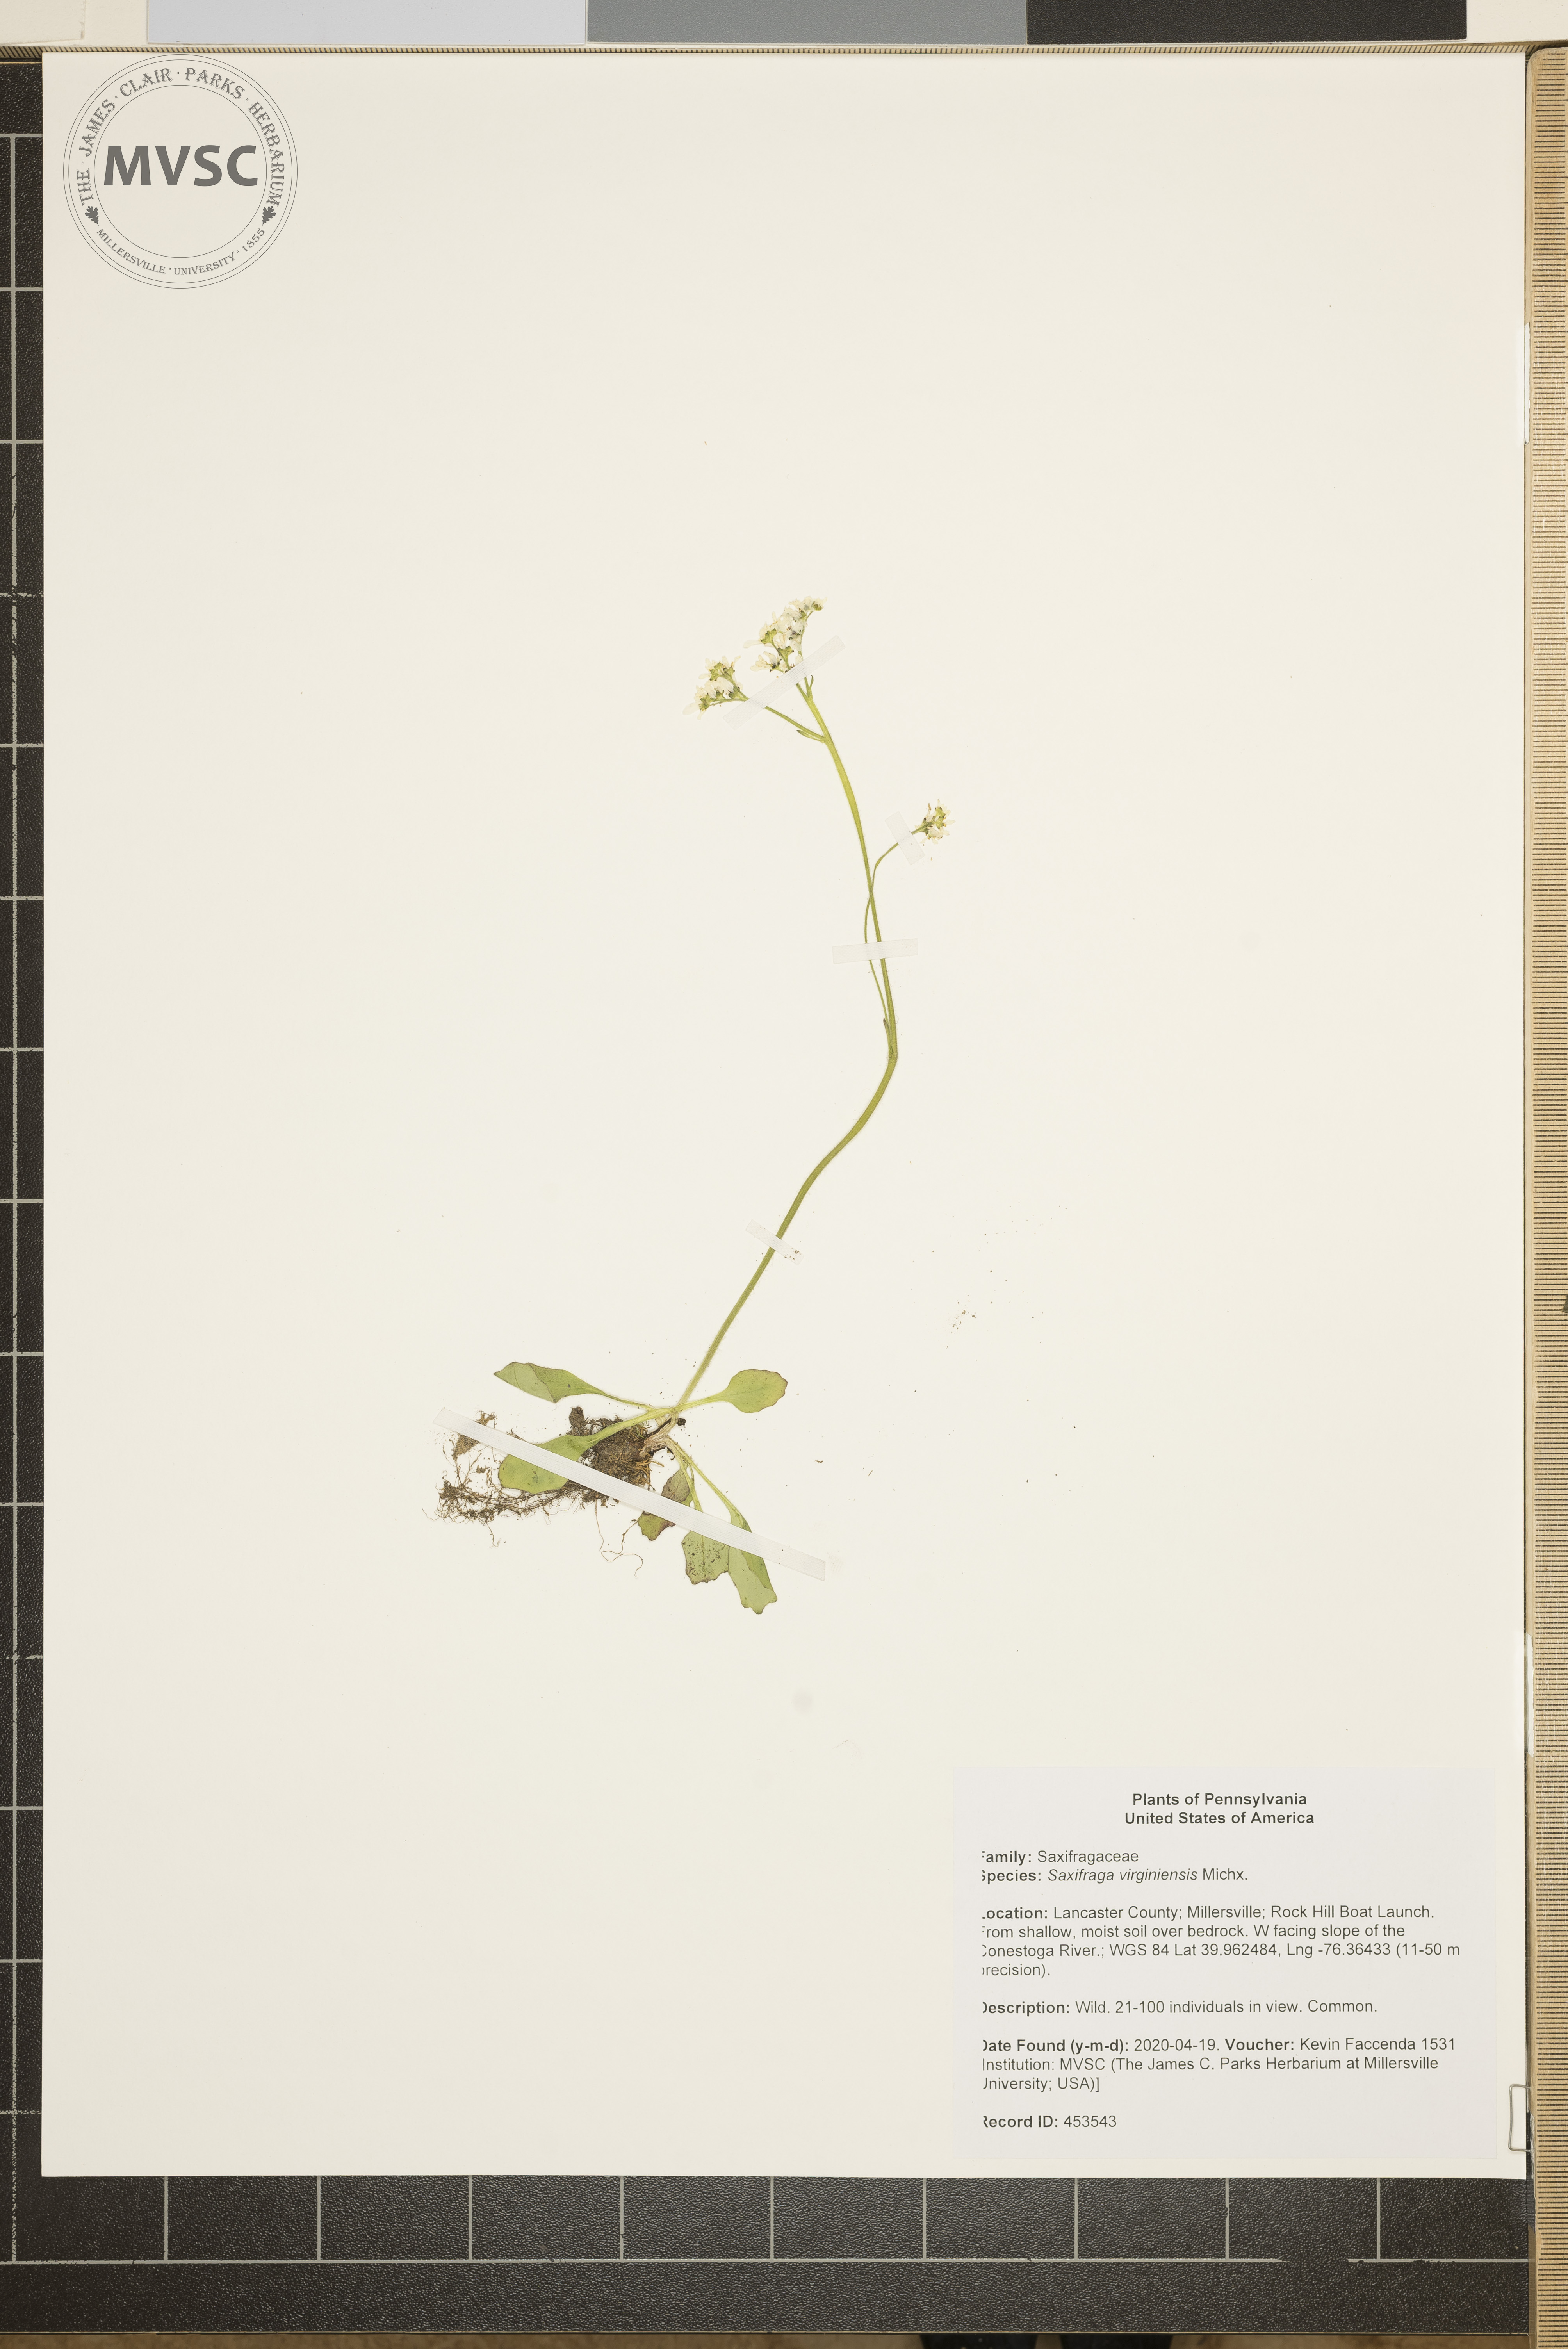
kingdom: Plantae
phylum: Tracheophyta
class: Magnoliopsida
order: Saxifragales
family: Saxifragaceae
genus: Micranthes
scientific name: Micranthes virginiensis
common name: Early saxifrage
